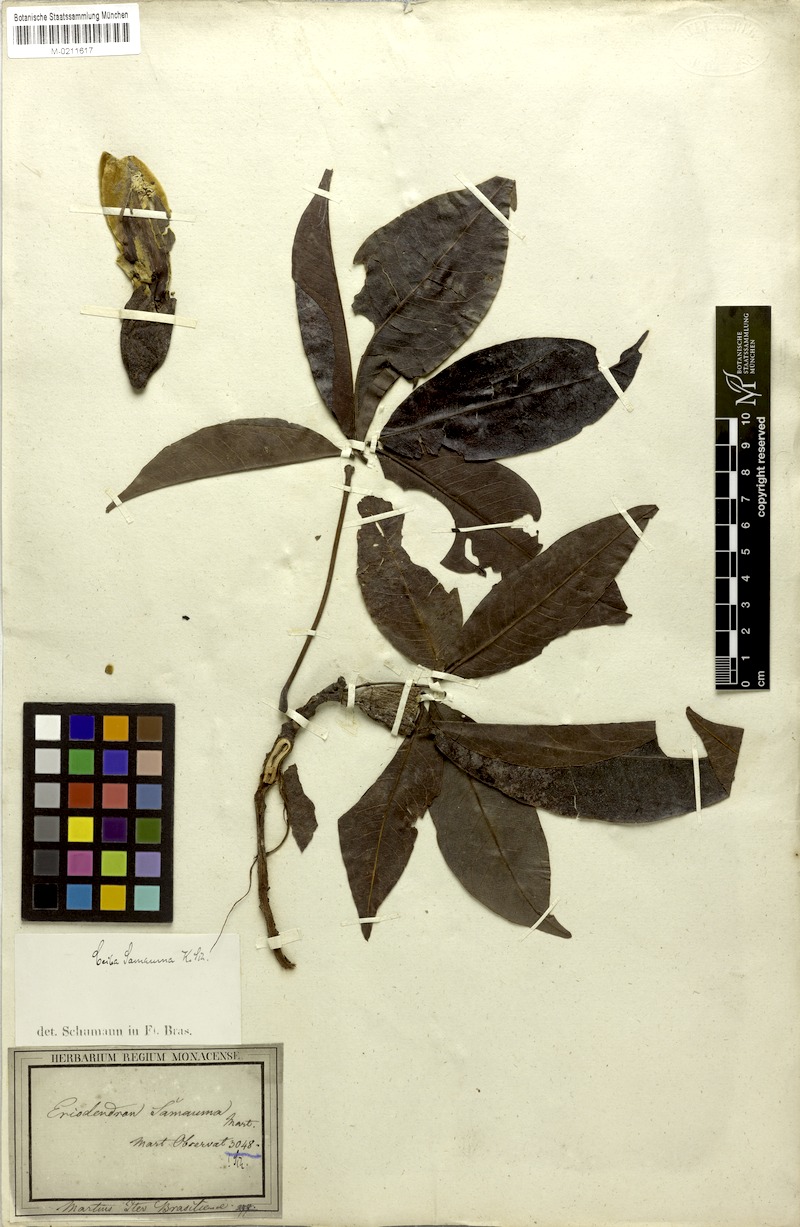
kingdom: Plantae
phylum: Tracheophyta
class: Magnoliopsida
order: Malvales
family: Malvaceae
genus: Ceiba
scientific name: Ceiba samauma
